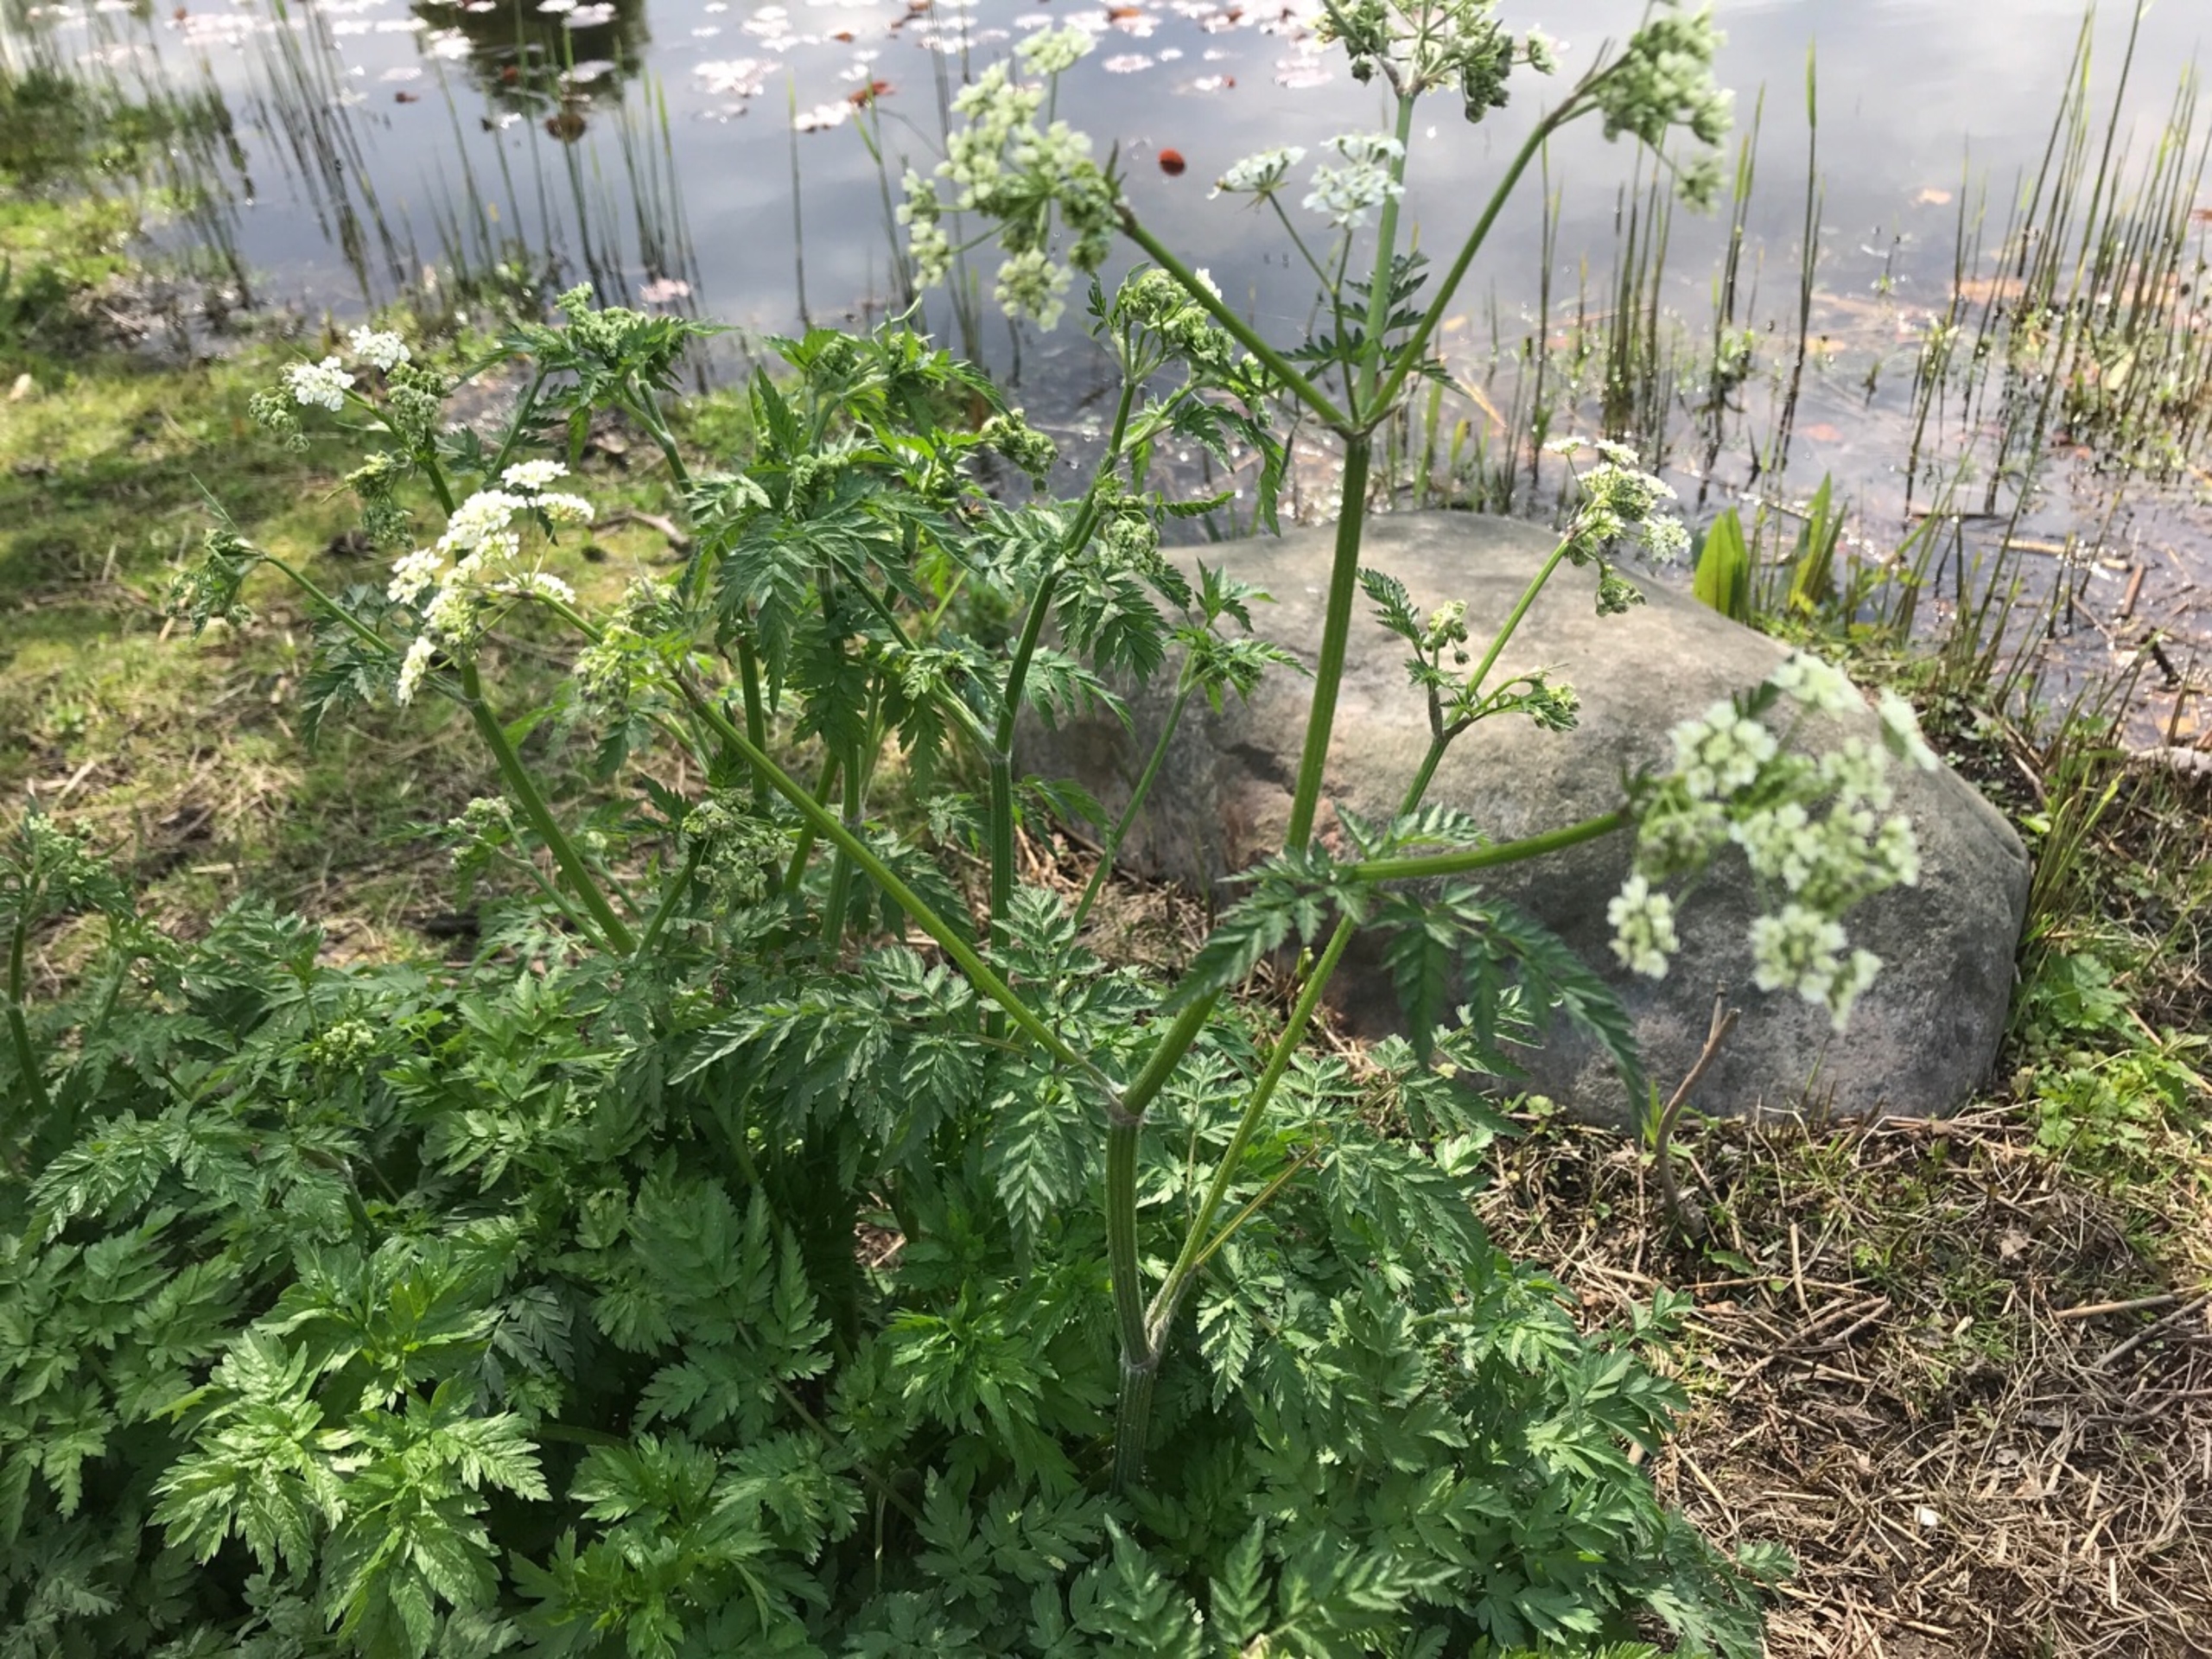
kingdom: Plantae
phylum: Tracheophyta
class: Magnoliopsida
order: Apiales
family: Apiaceae
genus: Anthriscus
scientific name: Anthriscus sylvestris
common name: Vild kørvel
